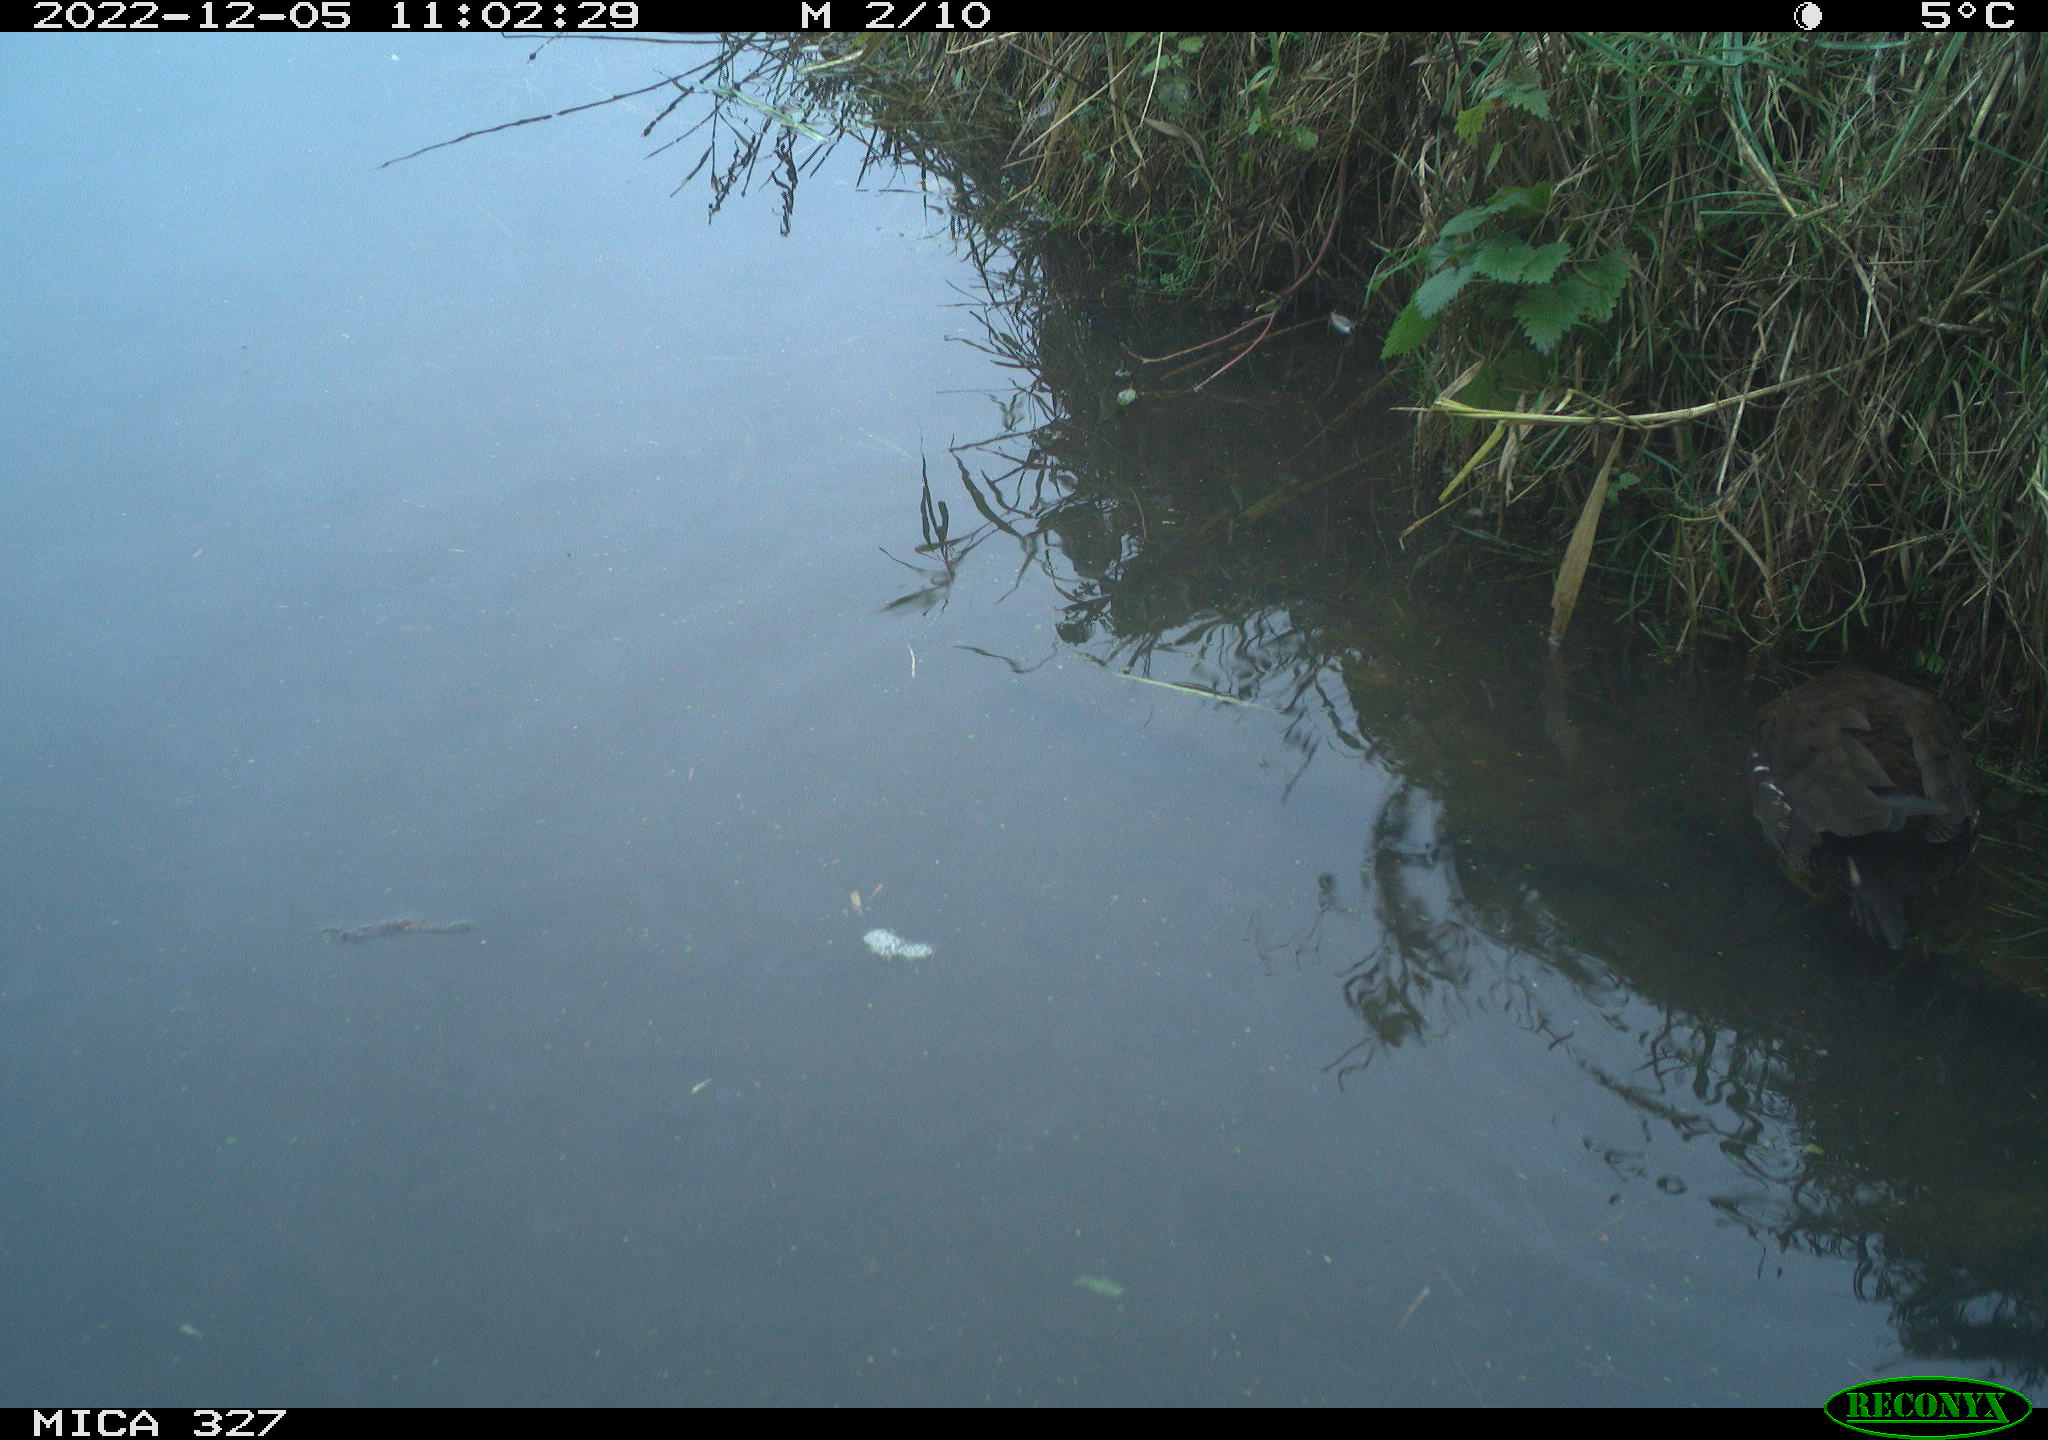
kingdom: Animalia
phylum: Chordata
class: Aves
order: Gruiformes
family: Rallidae
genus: Gallinula
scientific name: Gallinula chloropus
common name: Common moorhen
